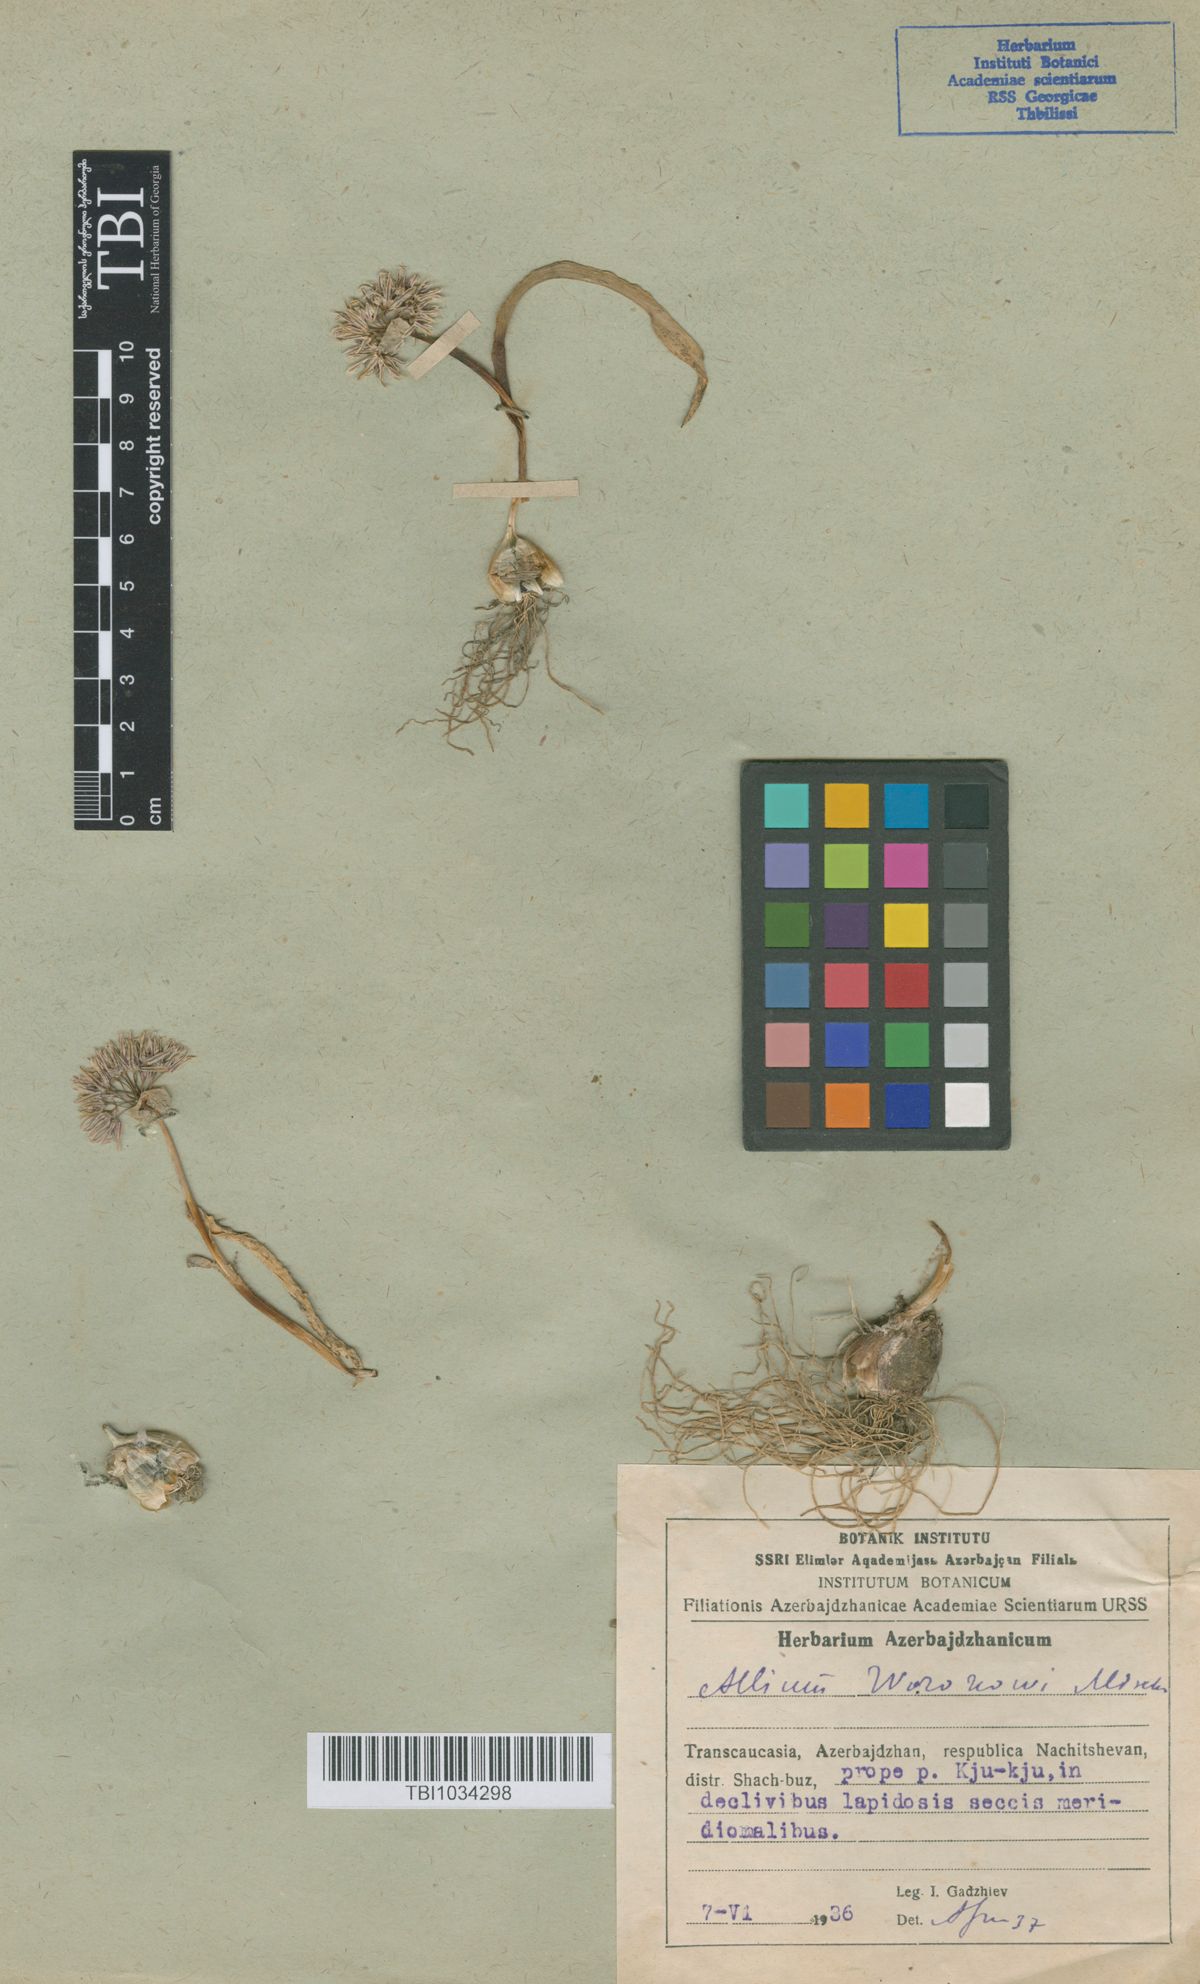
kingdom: Plantae
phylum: Tracheophyta
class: Liliopsida
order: Asparagales
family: Amaryllidaceae
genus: Allium
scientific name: Allium woronowii
